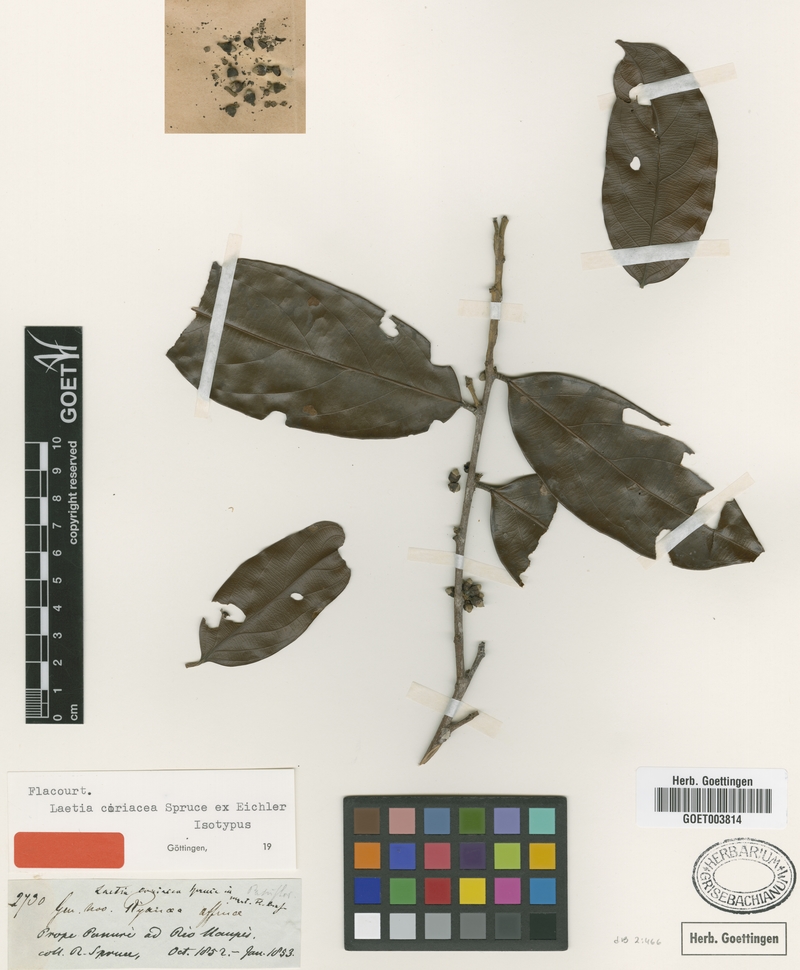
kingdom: Plantae
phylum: Tracheophyta
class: Magnoliopsida
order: Malpighiales
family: Salicaceae
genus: Irenodendron
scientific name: Irenodendron coriaceum
